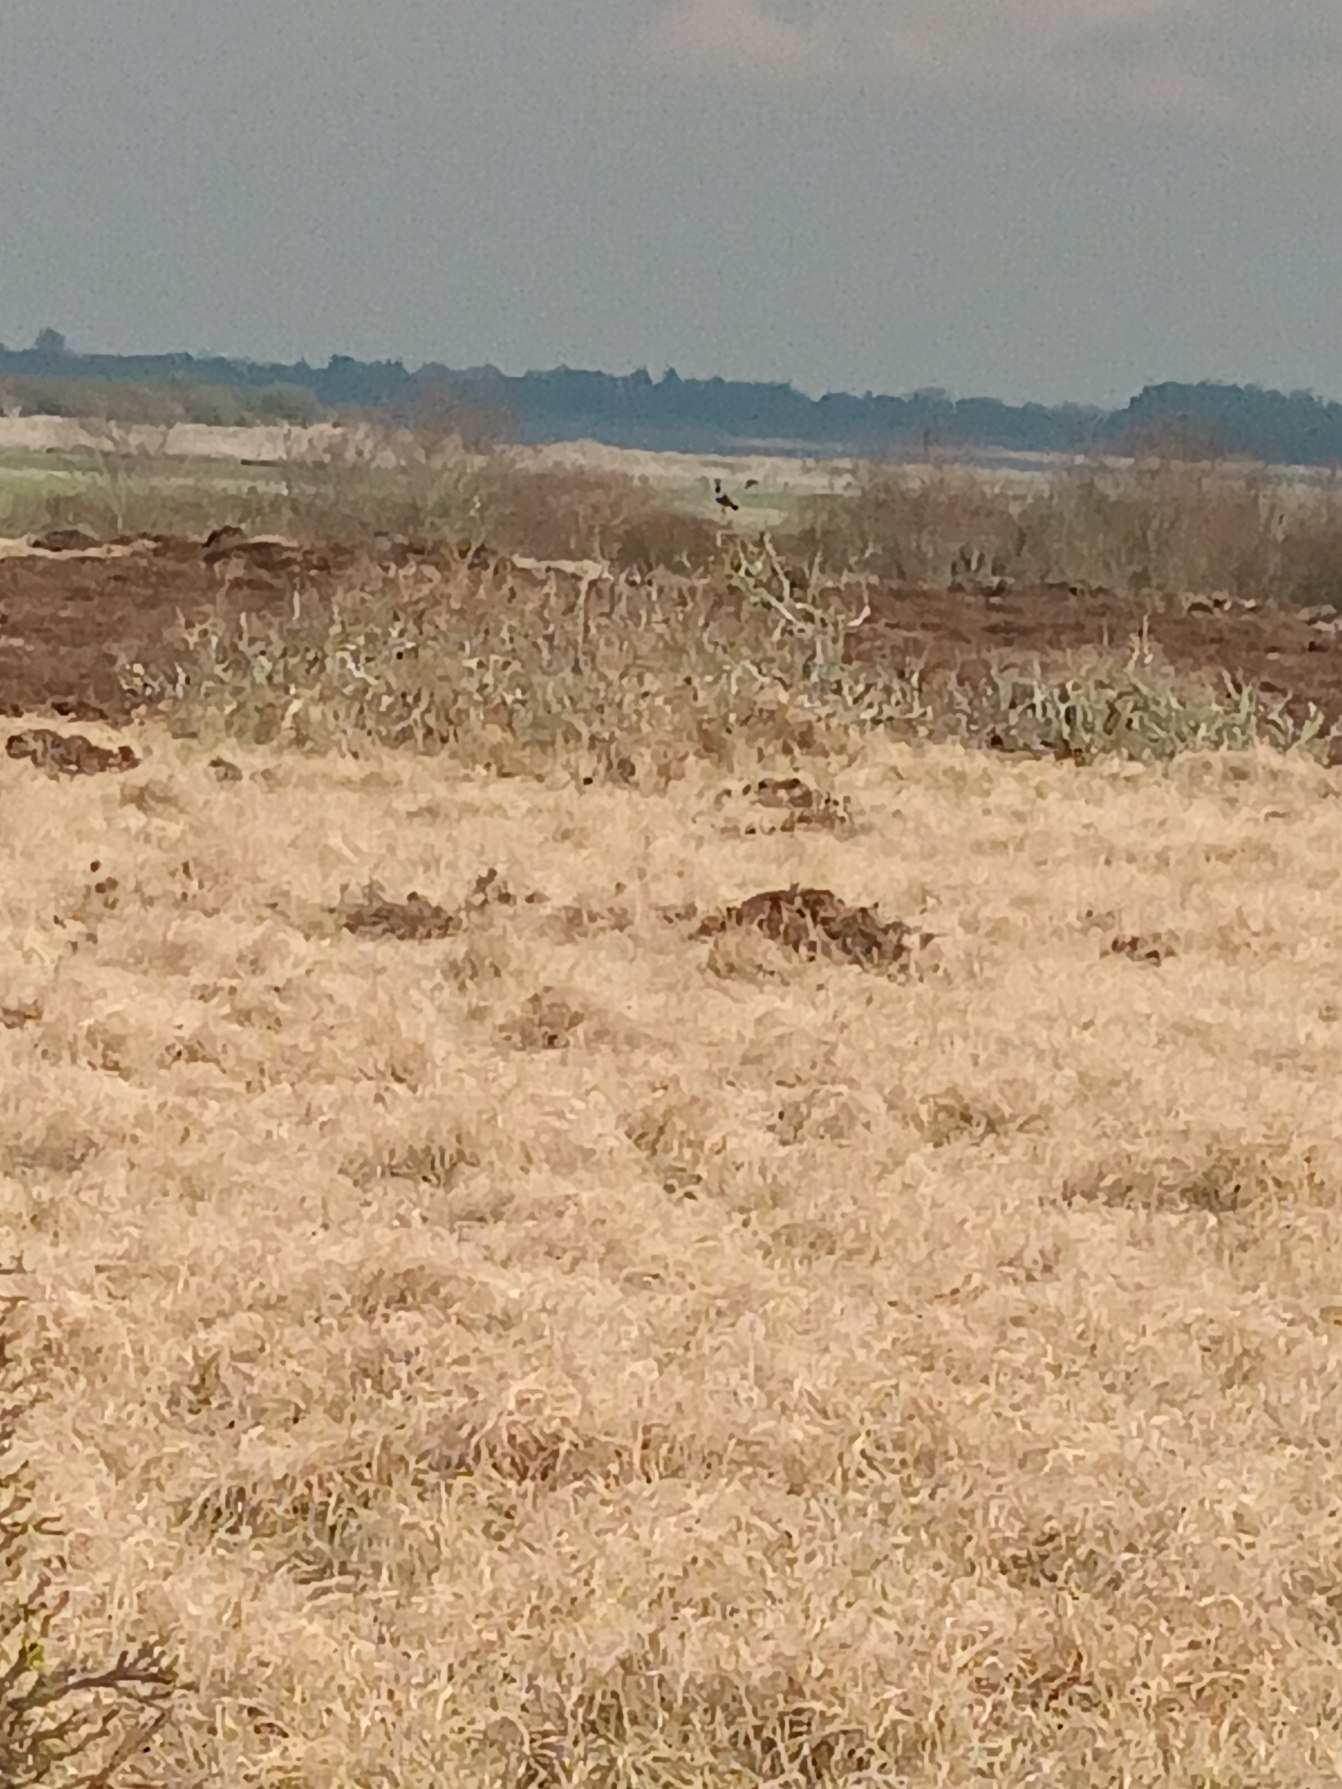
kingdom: Animalia
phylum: Chordata
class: Aves
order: Passeriformes
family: Turdidae
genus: Turdus
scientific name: Turdus torquatus
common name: Ringdrossel
